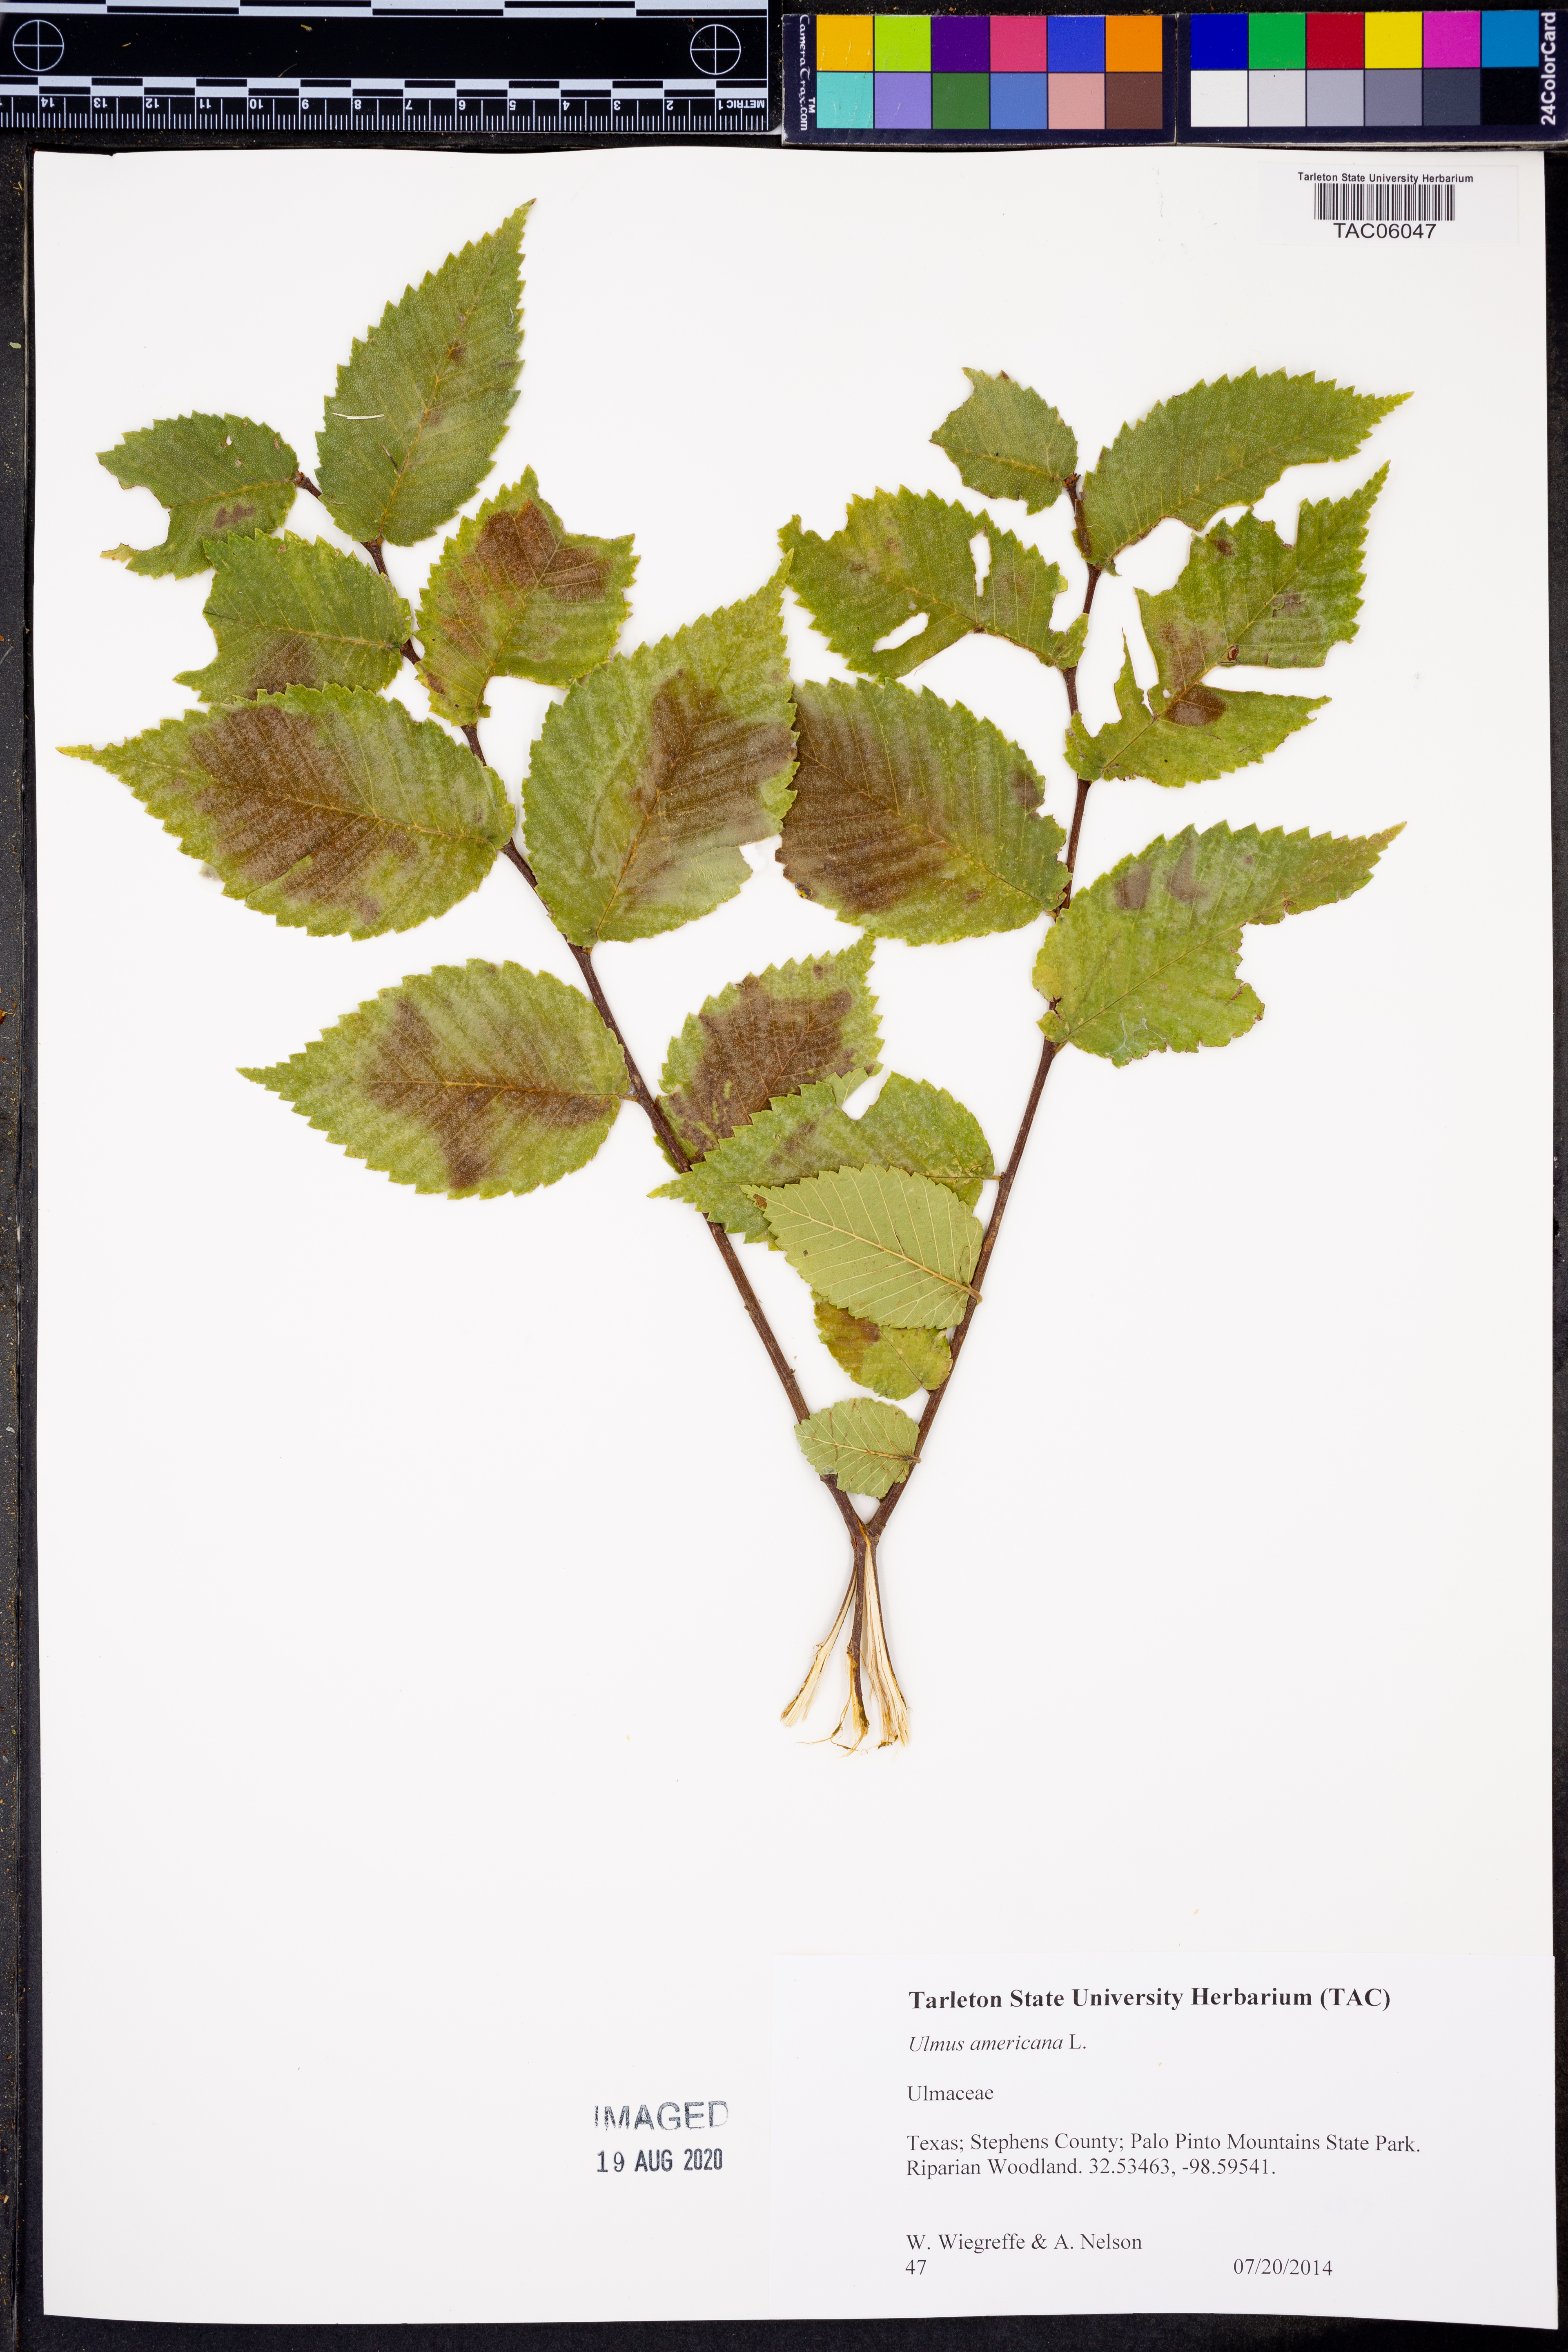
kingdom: Plantae
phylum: Tracheophyta
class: Magnoliopsida
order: Rosales
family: Ulmaceae
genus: Ulmus
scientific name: Ulmus americana
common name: American elm
